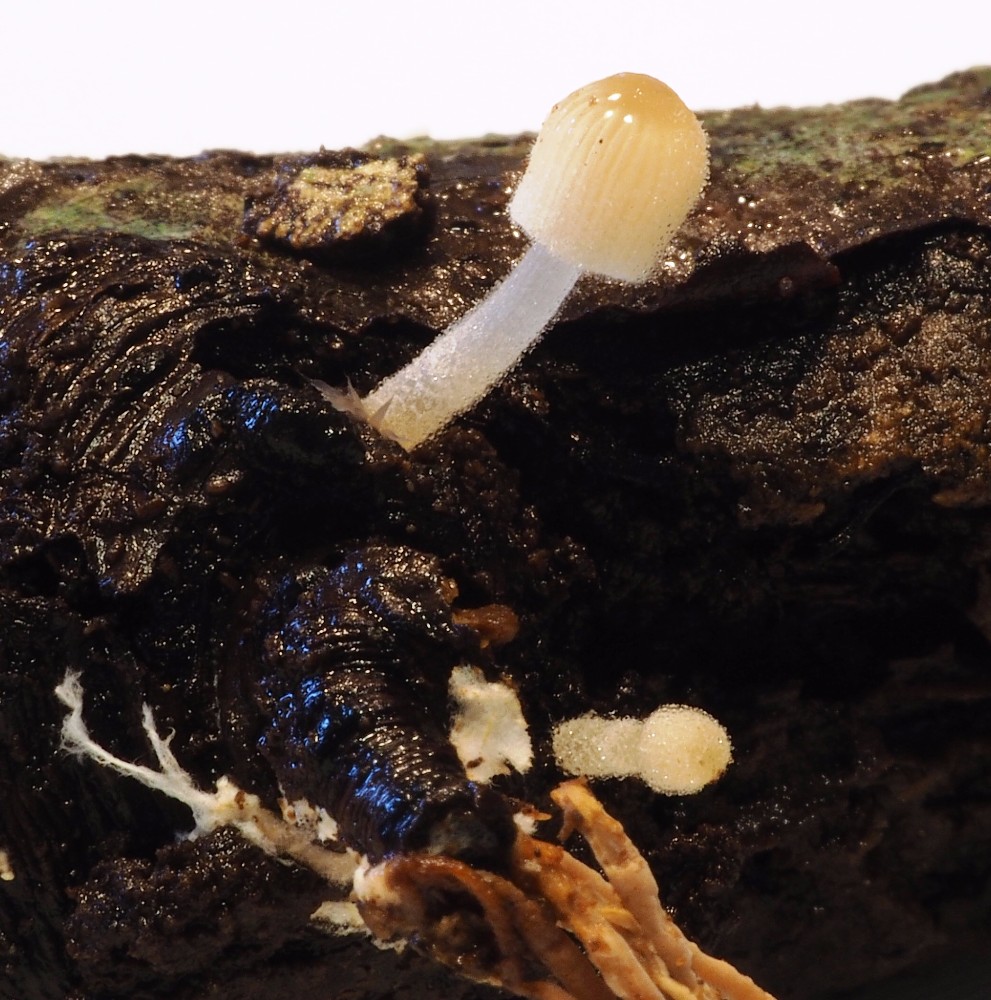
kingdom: Fungi
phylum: Basidiomycota
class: Agaricomycetes
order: Agaricales
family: Psathyrellaceae
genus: Coprinellus
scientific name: Coprinellus disseminatus
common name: bredsået blækhat
